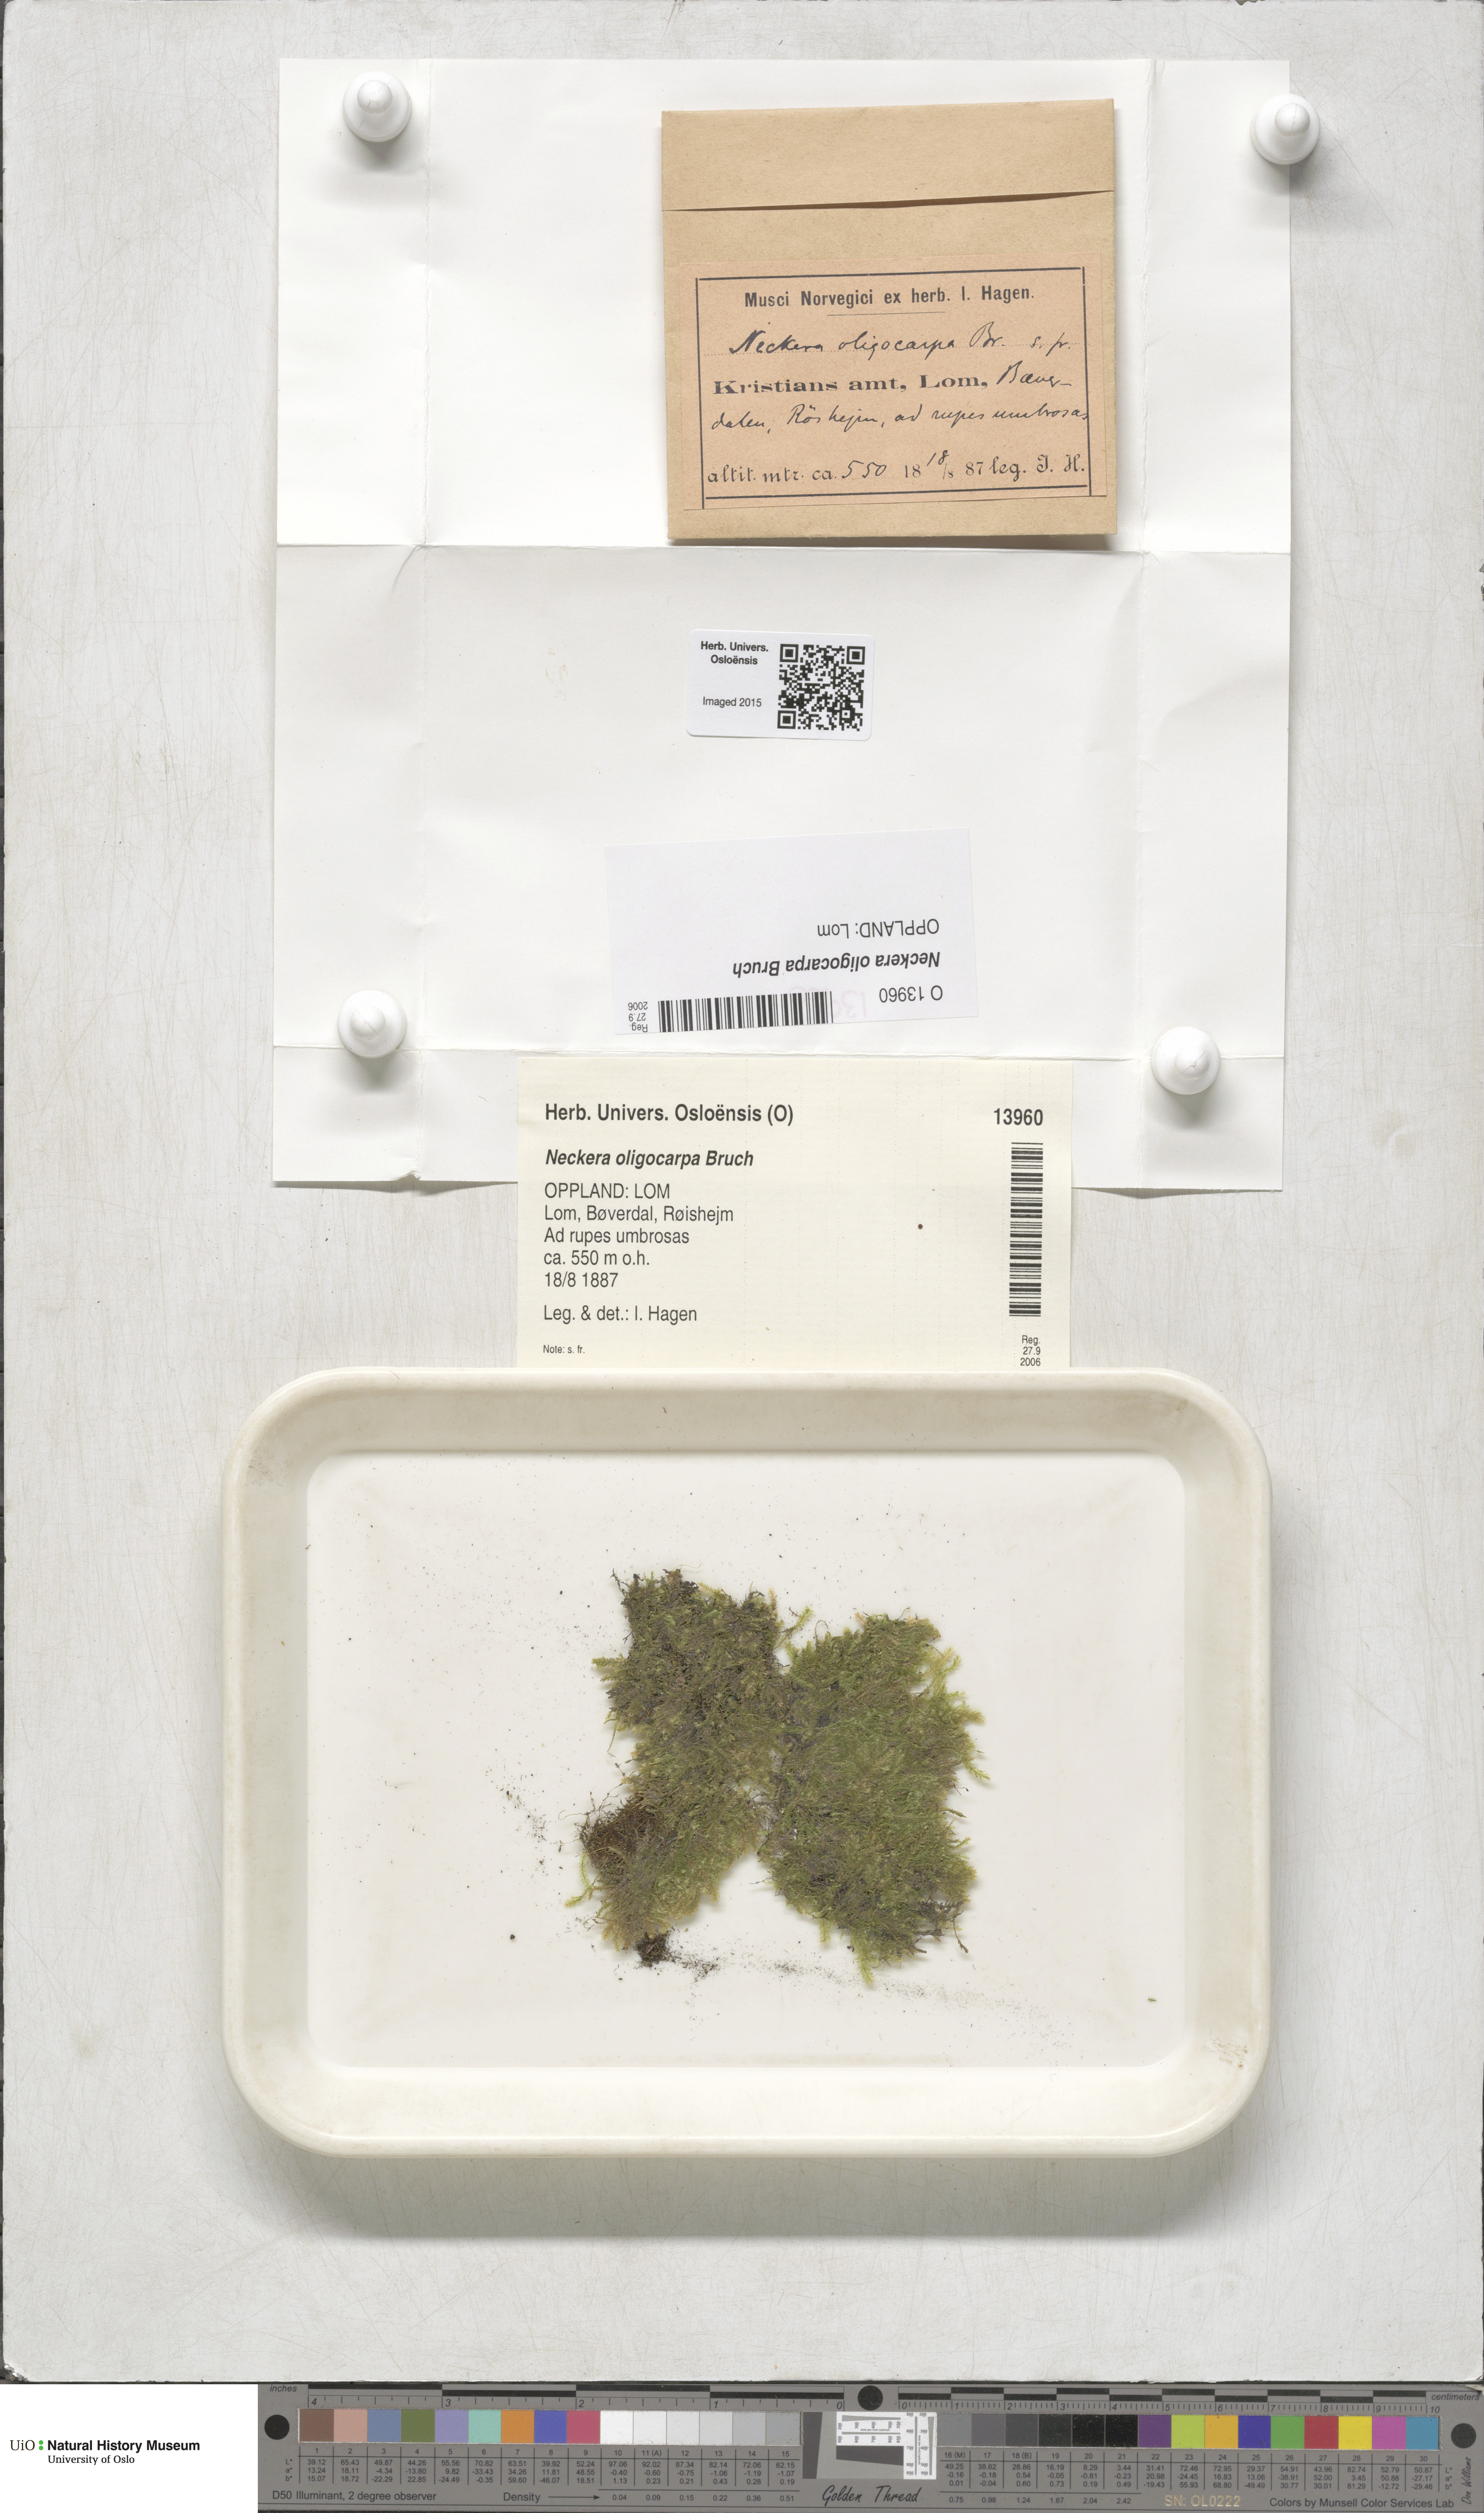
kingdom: Plantae
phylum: Bryophyta
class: Bryopsida
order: Hypnales
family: Neckeraceae
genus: Neckera
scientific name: Neckera oligocarpa
